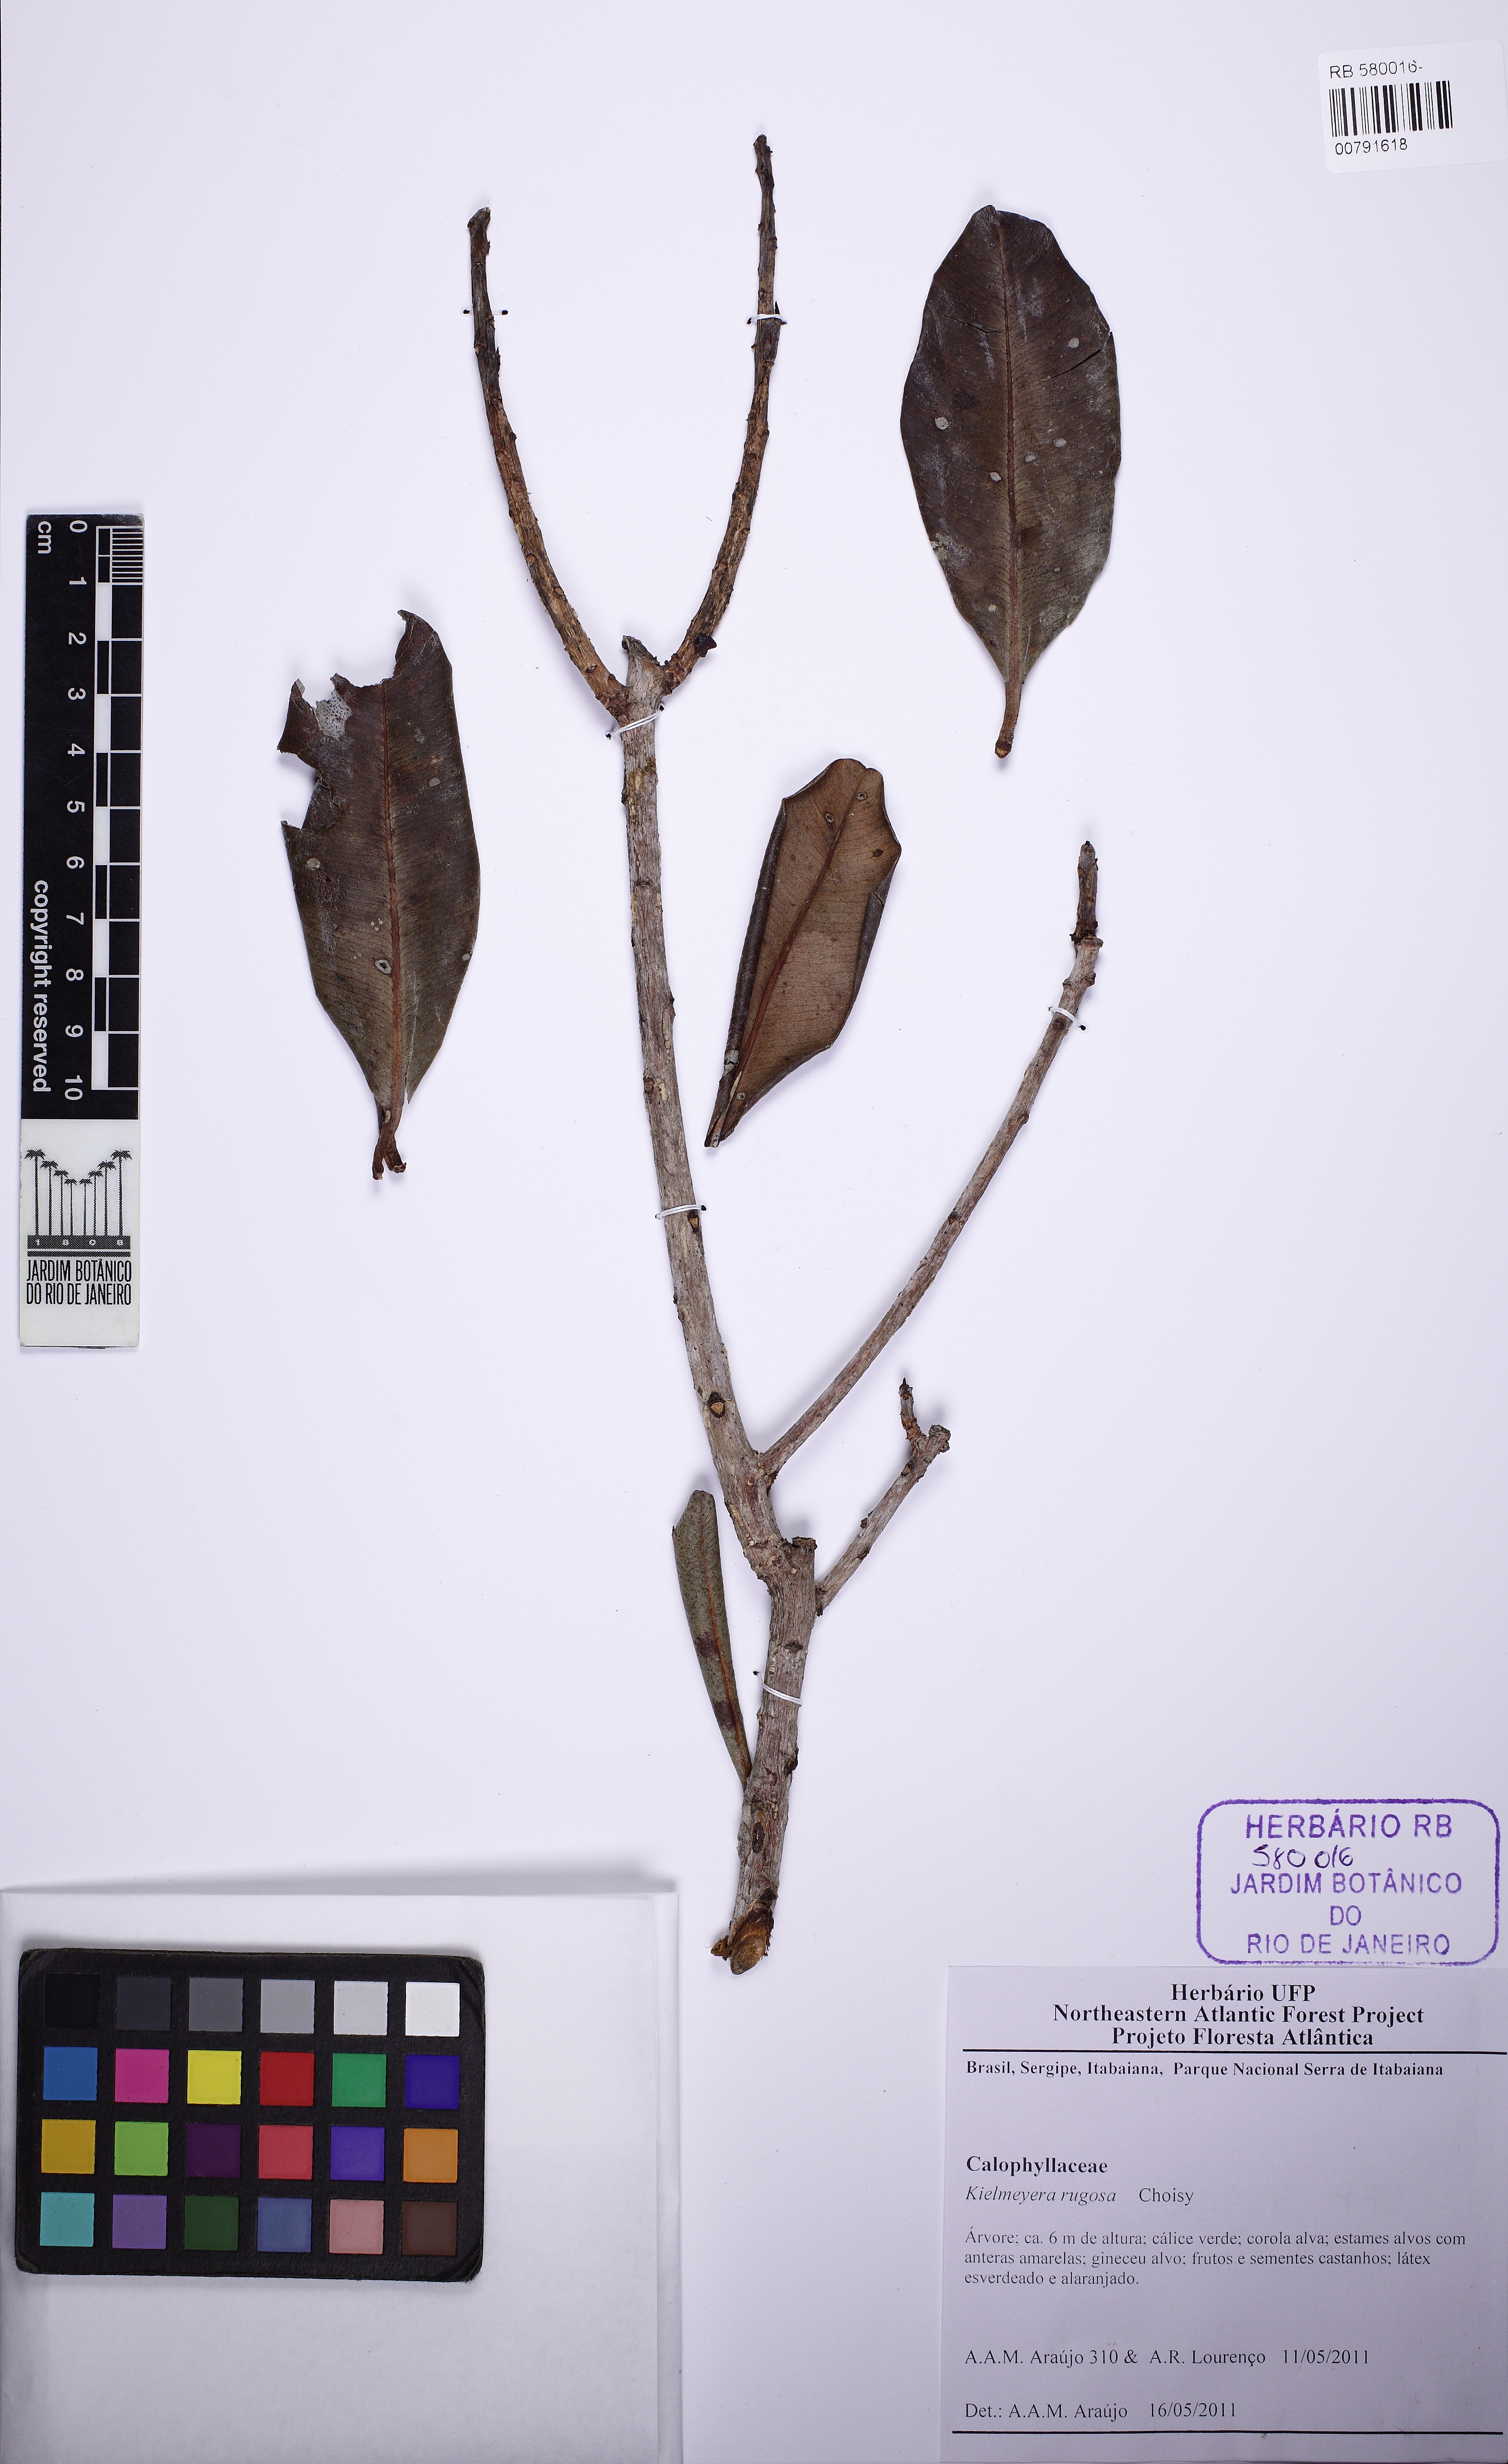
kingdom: Plantae
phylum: Tracheophyta
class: Magnoliopsida
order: Malpighiales
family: Calophyllaceae
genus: Kielmeyera
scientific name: Kielmeyera rugosa
